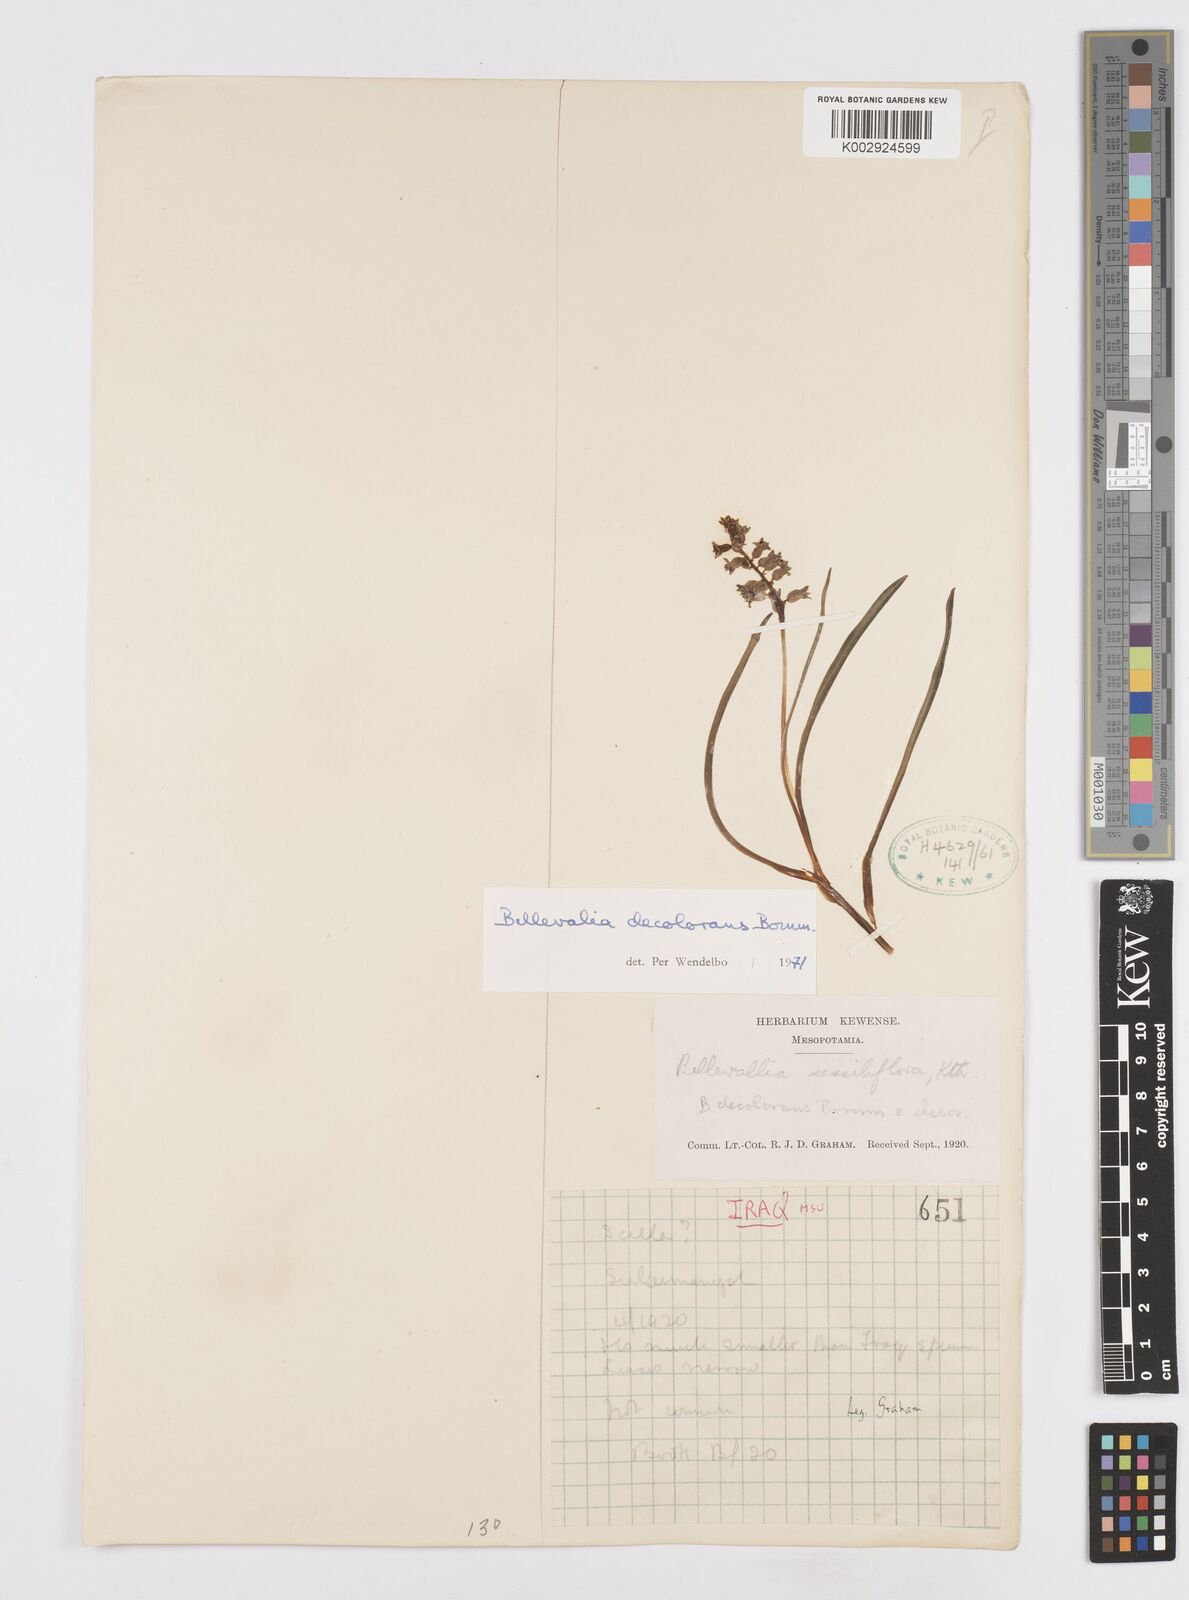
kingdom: Plantae
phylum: Tracheophyta
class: Liliopsida
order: Asparagales
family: Asparagaceae
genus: Bellevalia
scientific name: Bellevalia decolorans
